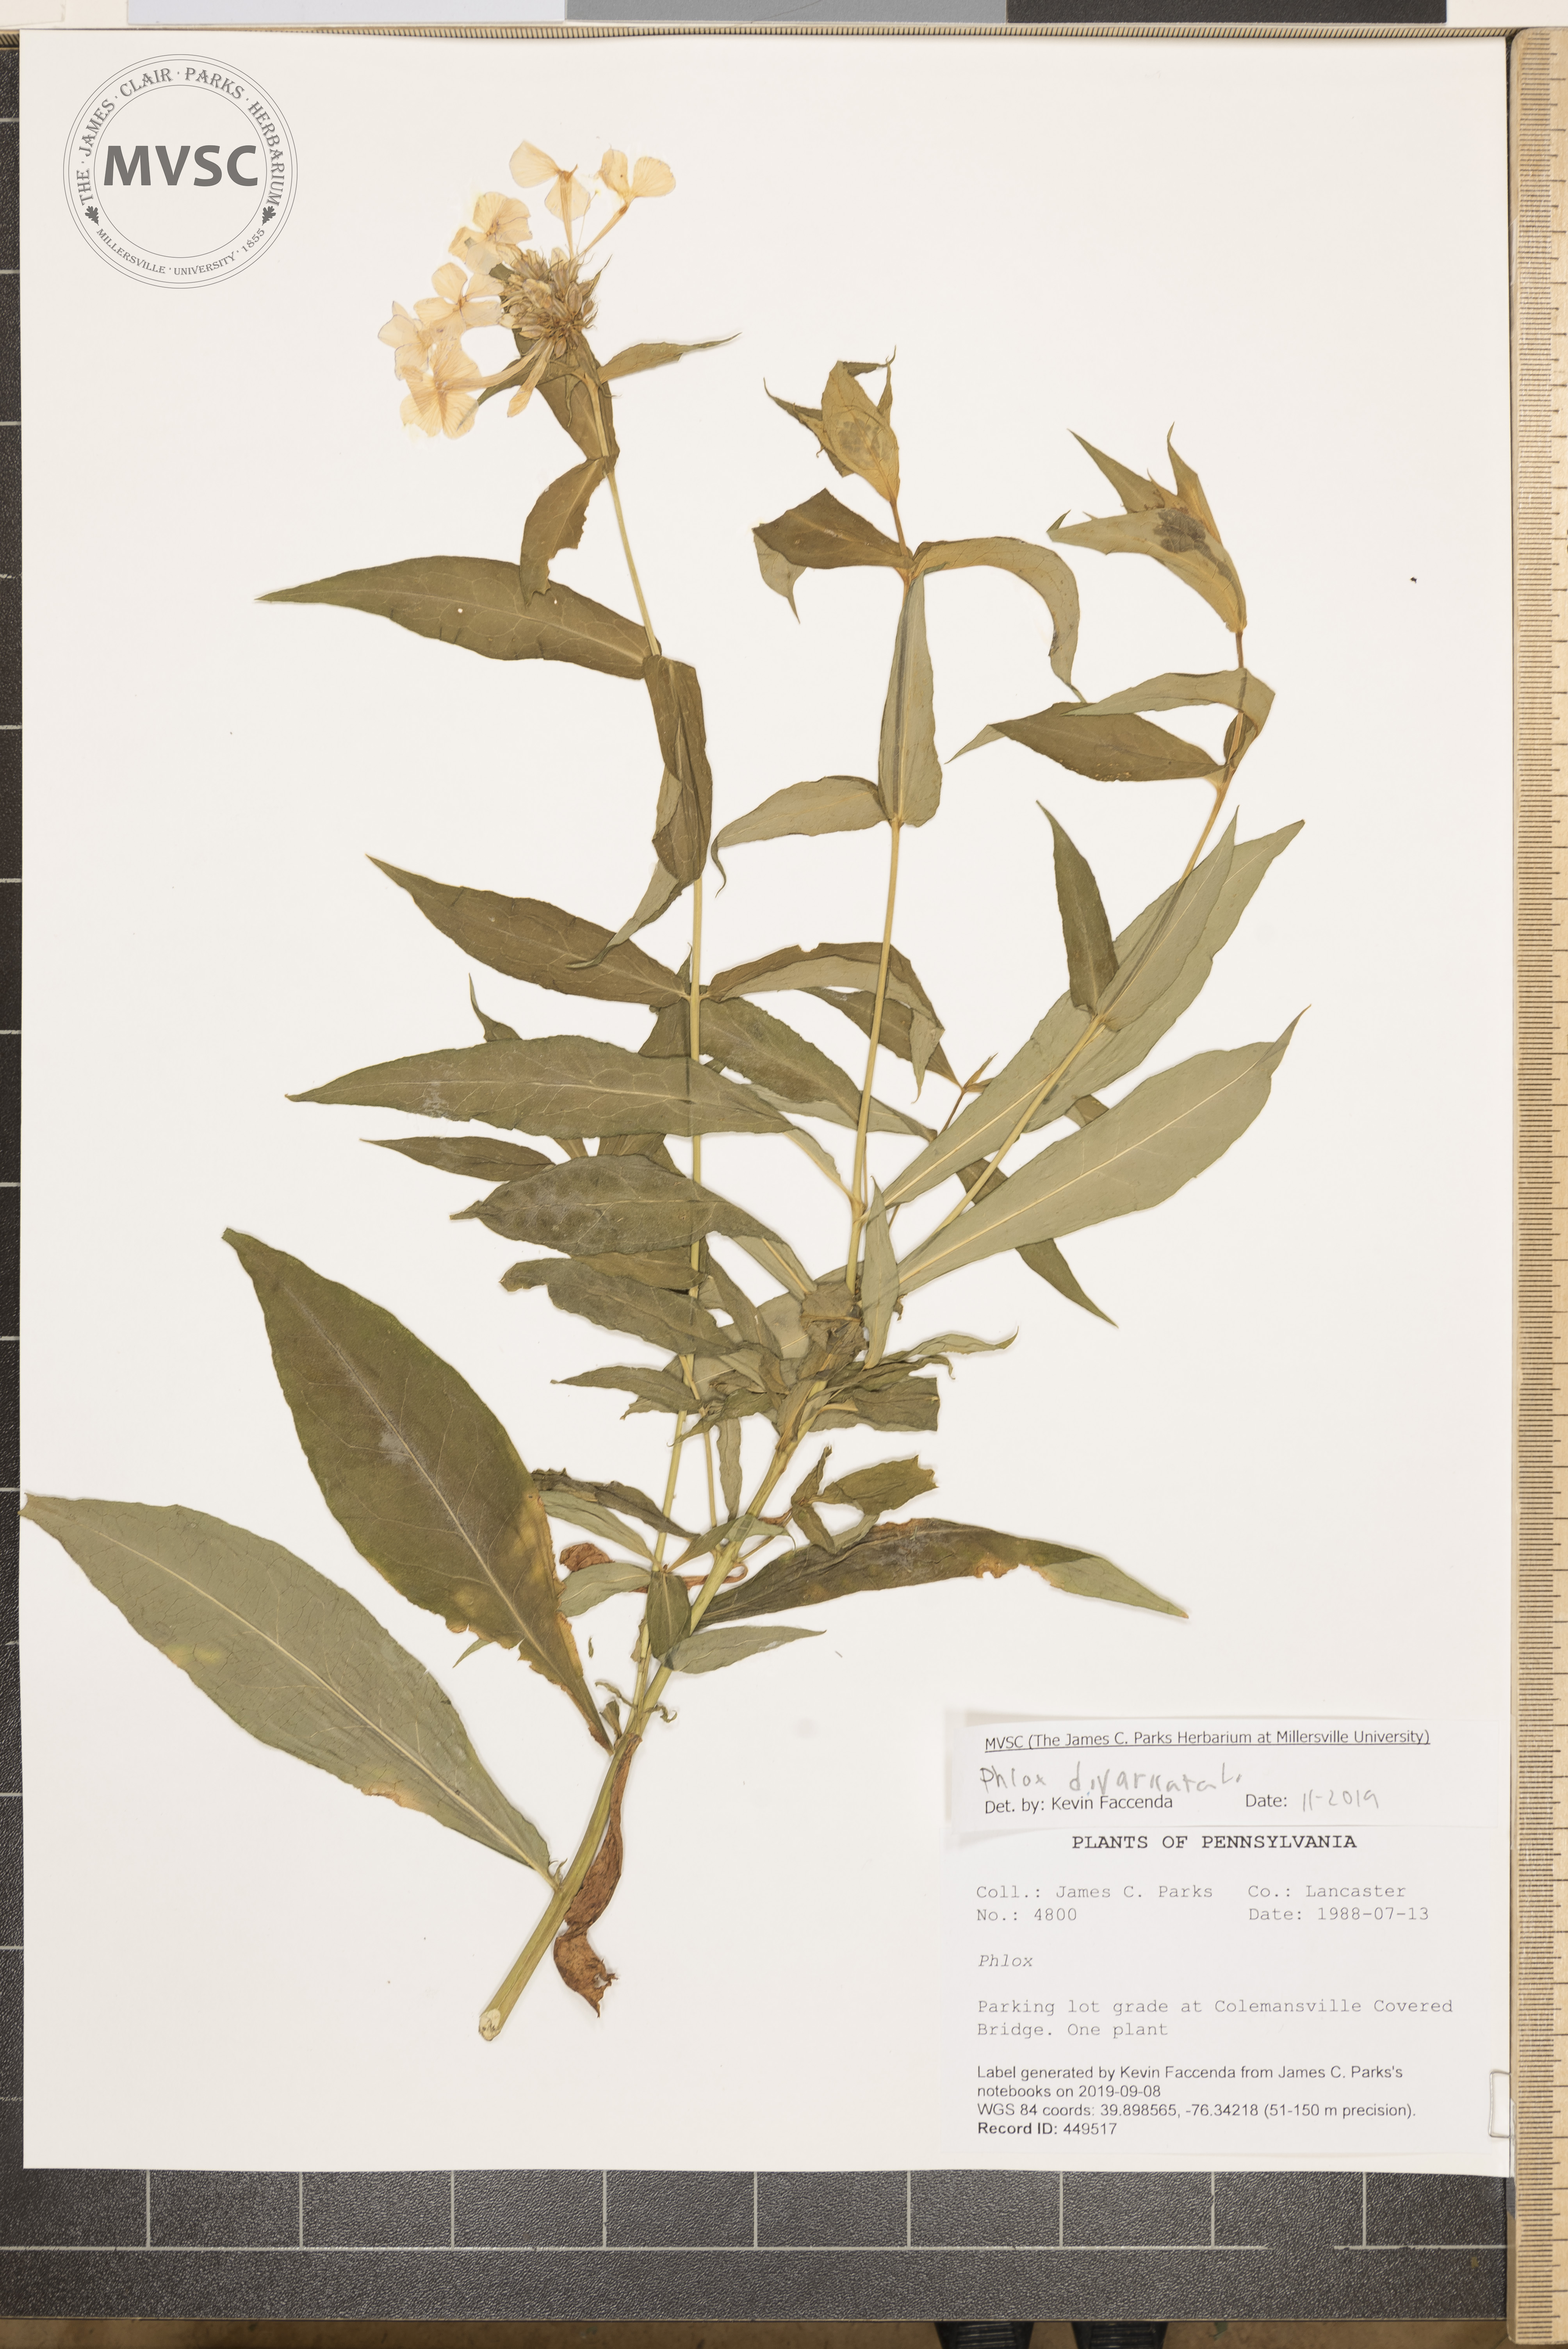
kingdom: Plantae
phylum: Tracheophyta
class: Magnoliopsida
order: Ericales
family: Polemoniaceae
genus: Phlox
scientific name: Phlox divaricata
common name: Blue phlox
